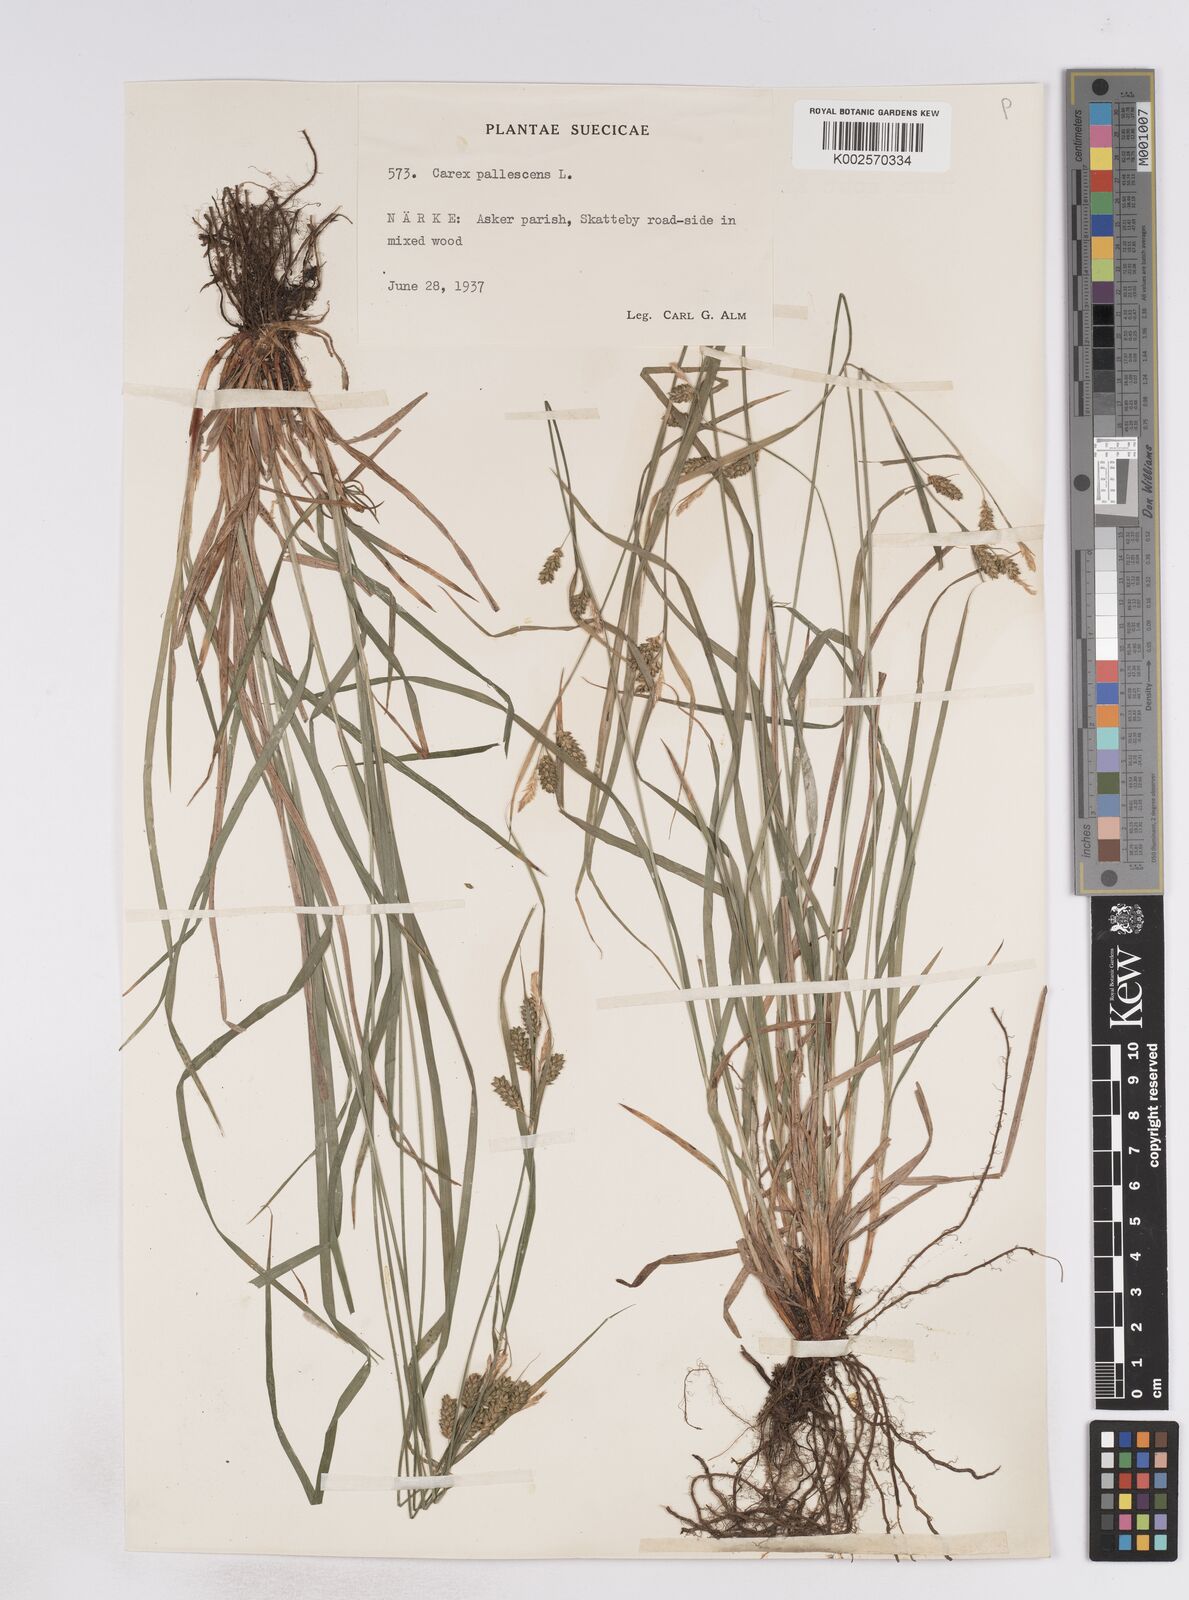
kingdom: Plantae
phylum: Tracheophyta
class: Liliopsida
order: Poales
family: Cyperaceae
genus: Carex
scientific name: Carex pallescens
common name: Pale sedge
